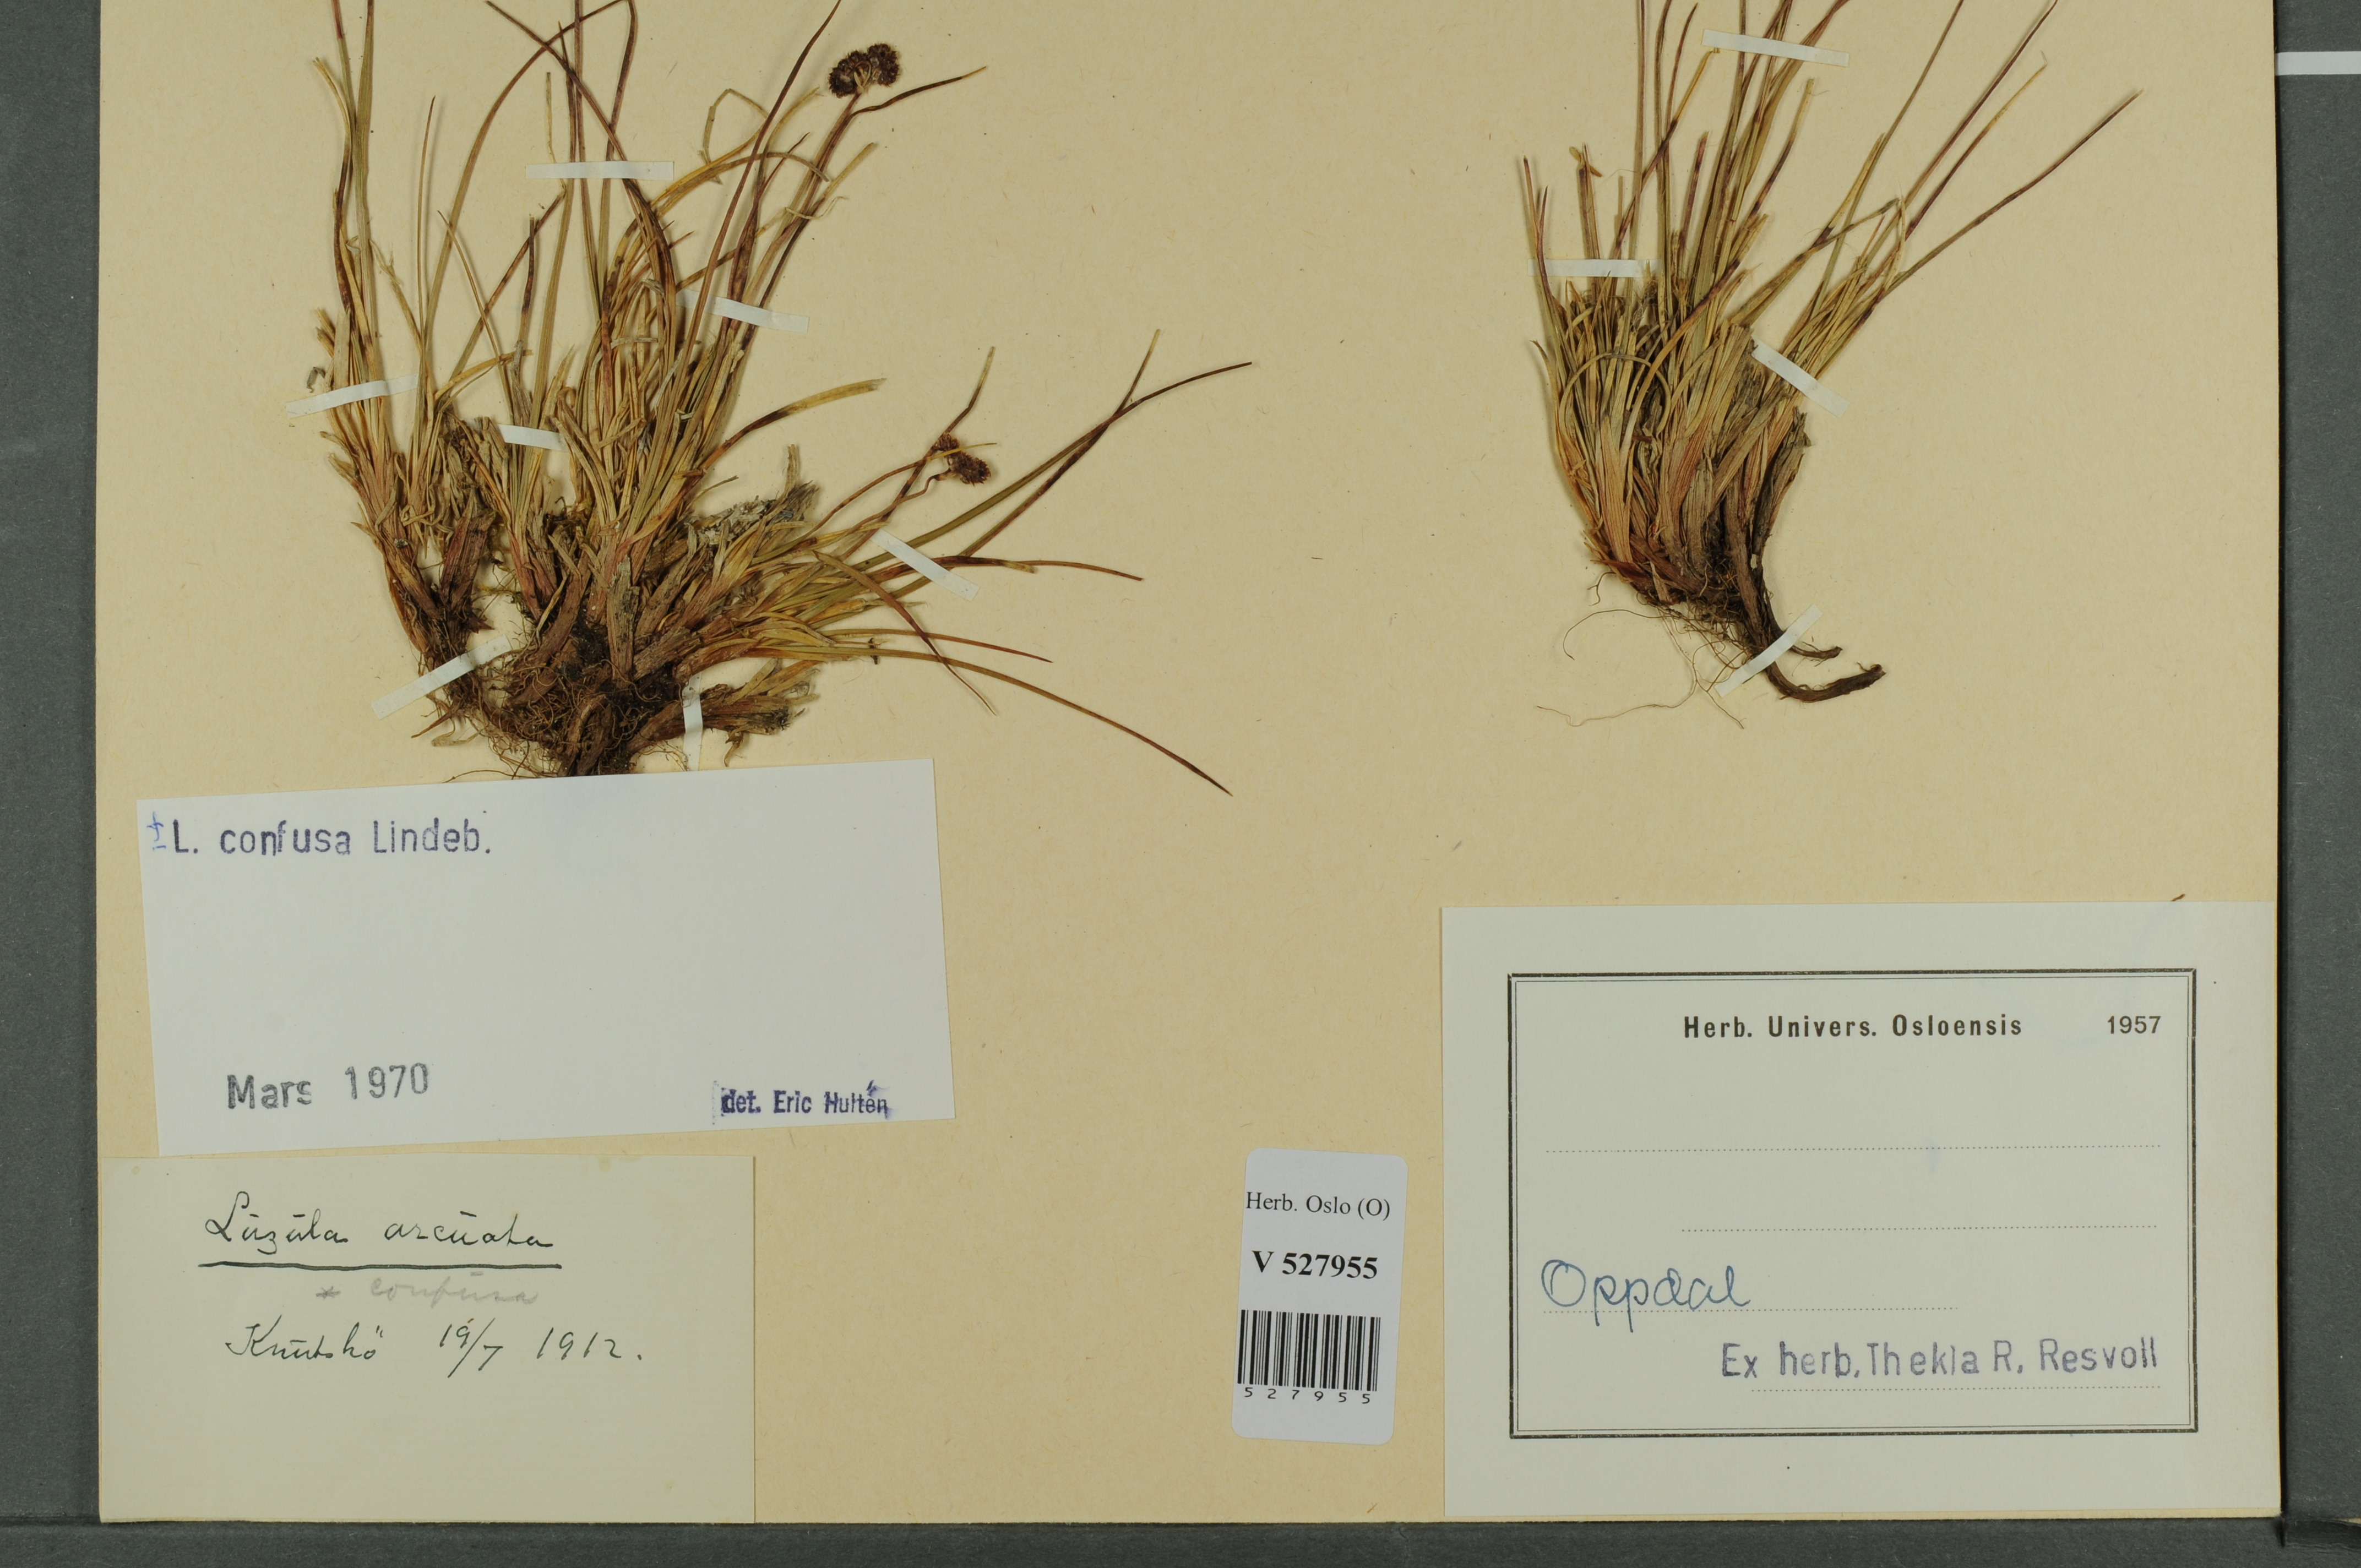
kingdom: Plantae
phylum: Tracheophyta
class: Liliopsida
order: Poales
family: Juncaceae
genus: Luzula
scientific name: Luzula confusa
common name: Northern wood rush
